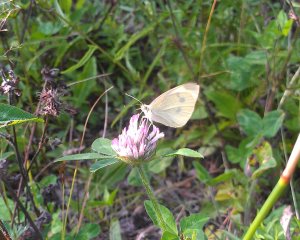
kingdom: Animalia
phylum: Arthropoda
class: Insecta
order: Lepidoptera
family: Pieridae
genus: Pieris
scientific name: Pieris rapae
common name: Cabbage White
